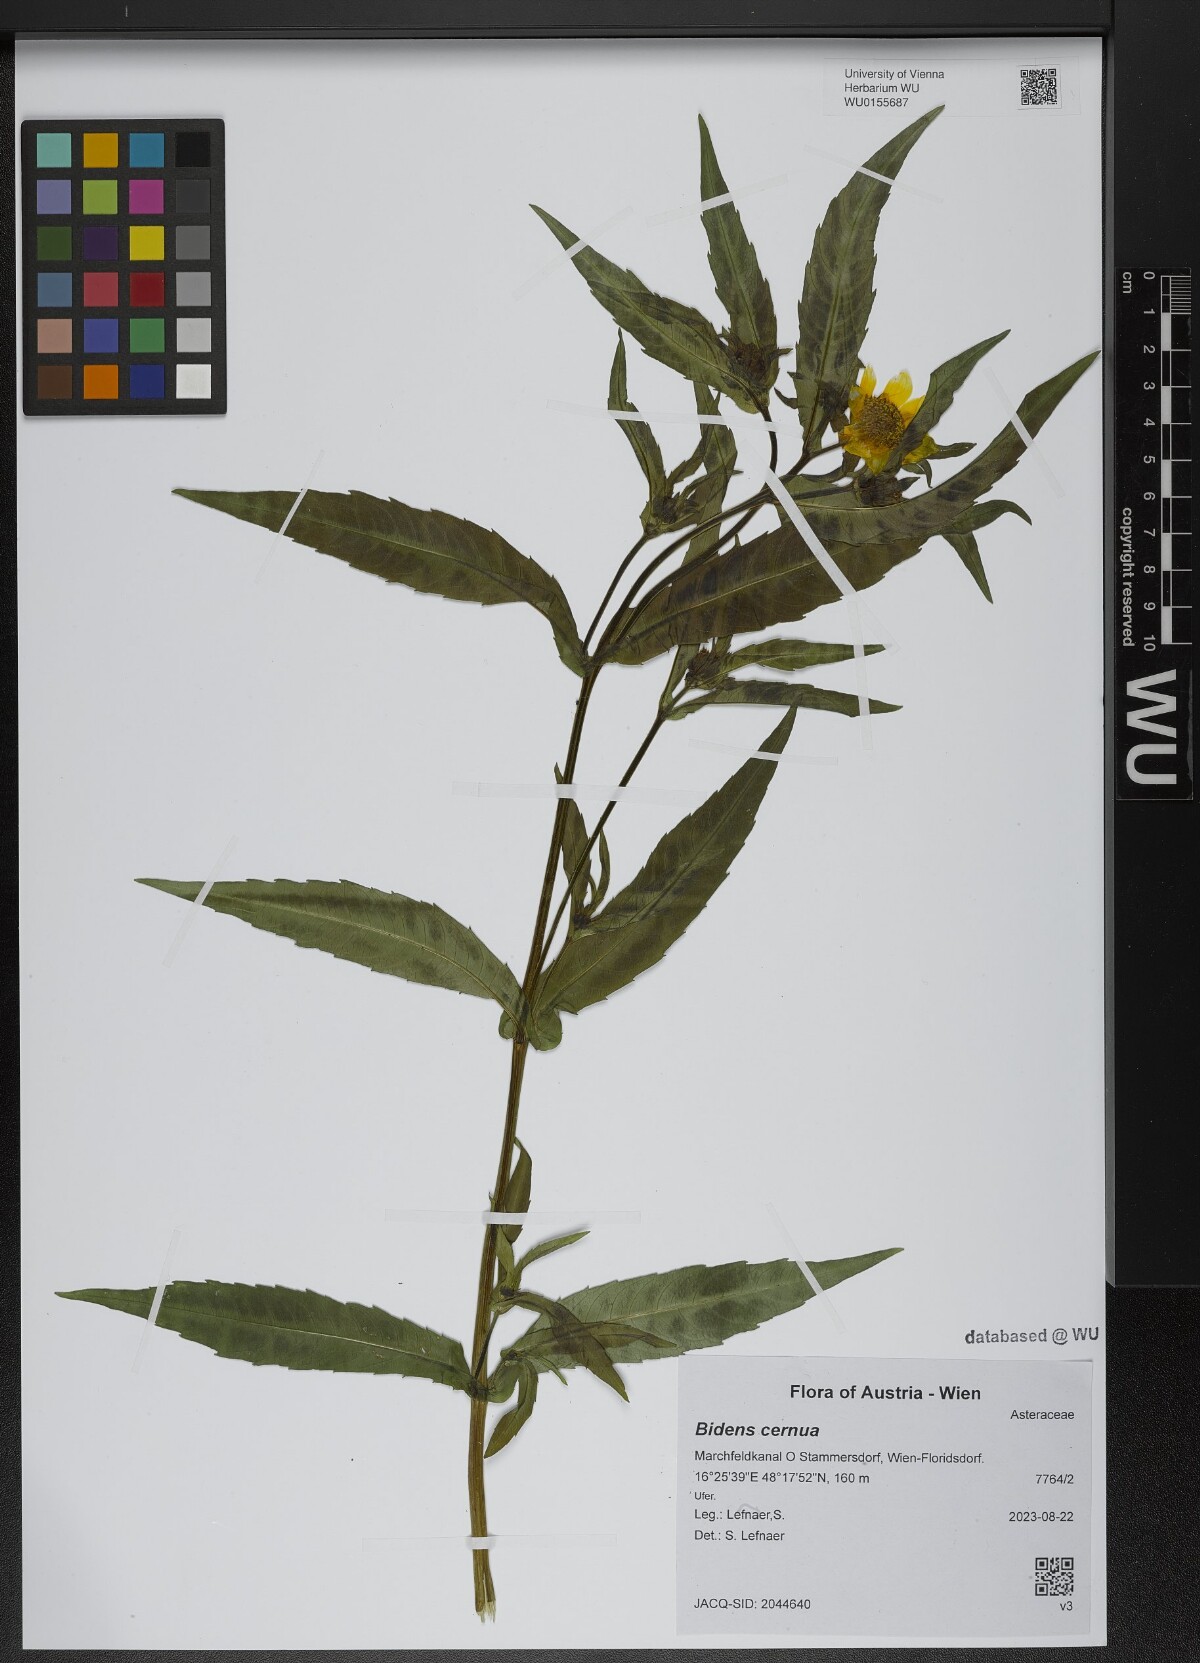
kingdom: Plantae
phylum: Tracheophyta
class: Magnoliopsida
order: Asterales
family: Asteraceae
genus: Bidens
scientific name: Bidens cernua
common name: Nodding bur-marigold
